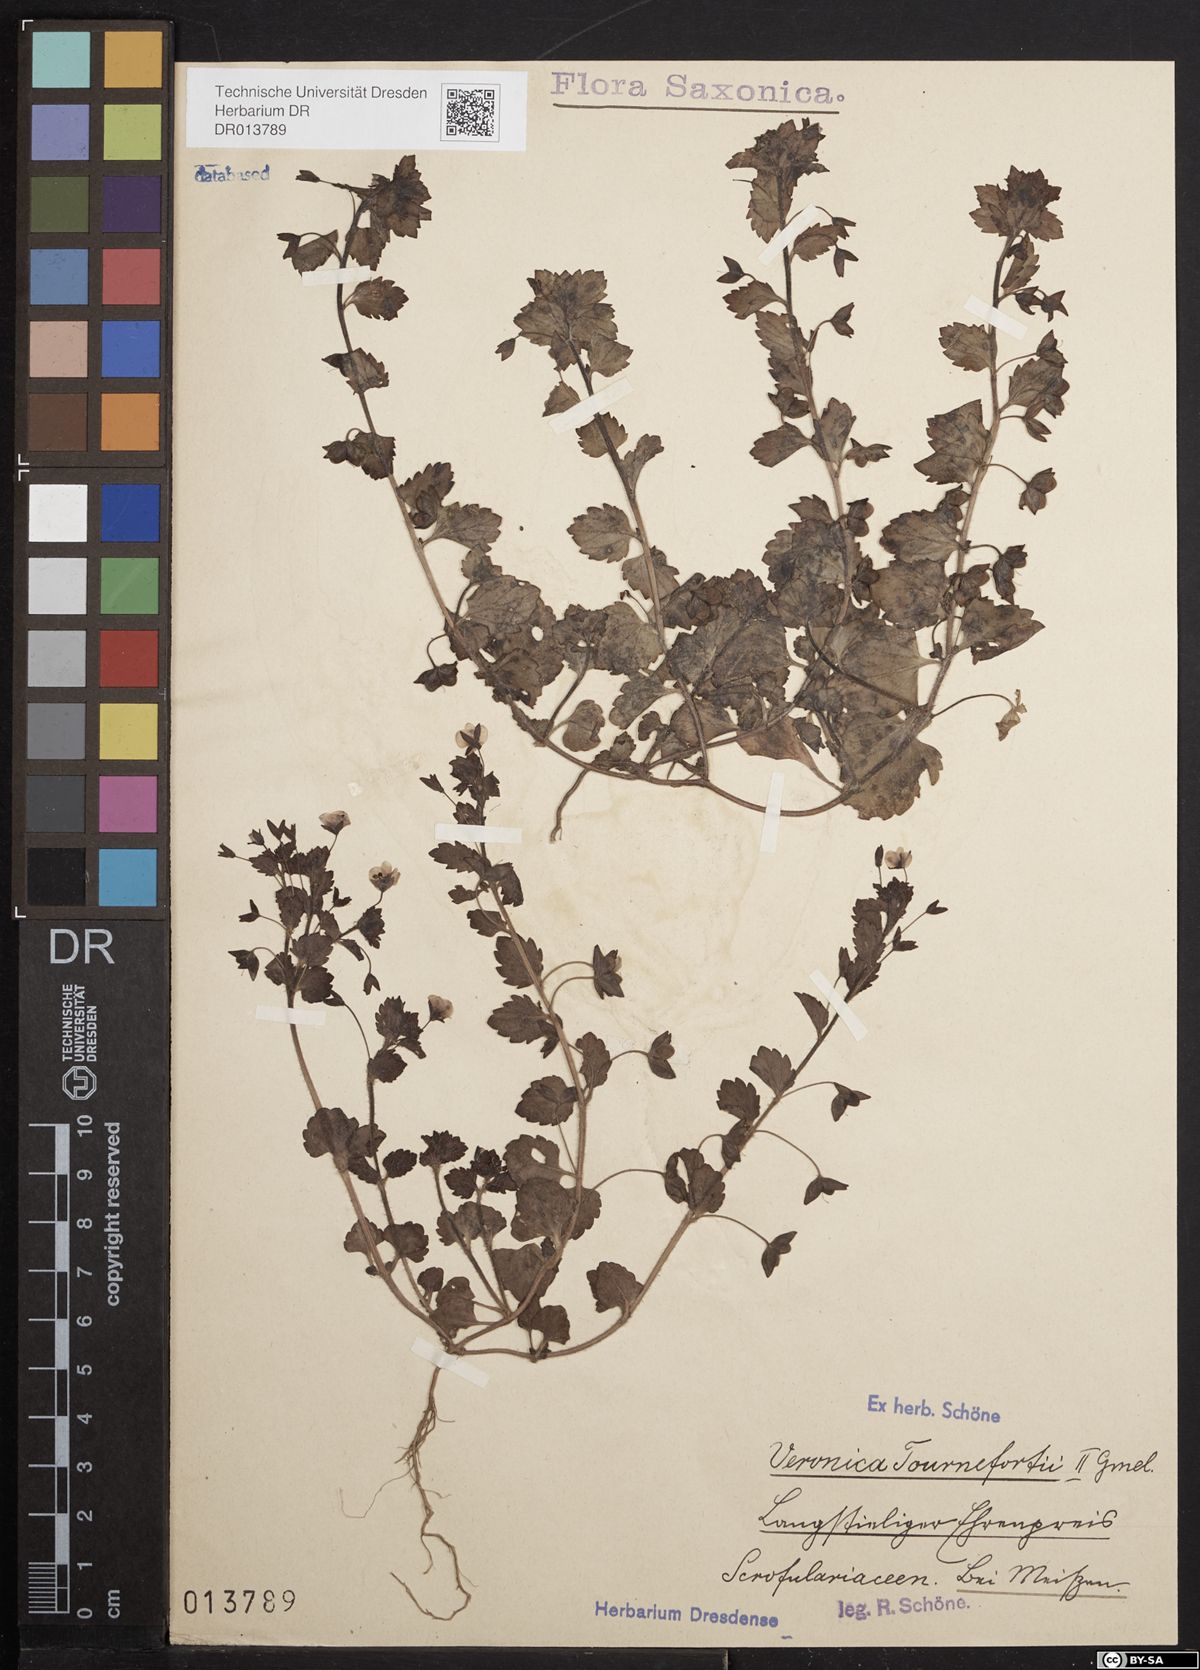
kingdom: Plantae
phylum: Tracheophyta
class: Magnoliopsida
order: Lamiales
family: Plantaginaceae
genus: Veronica
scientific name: Veronica persica
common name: Common field-speedwell
